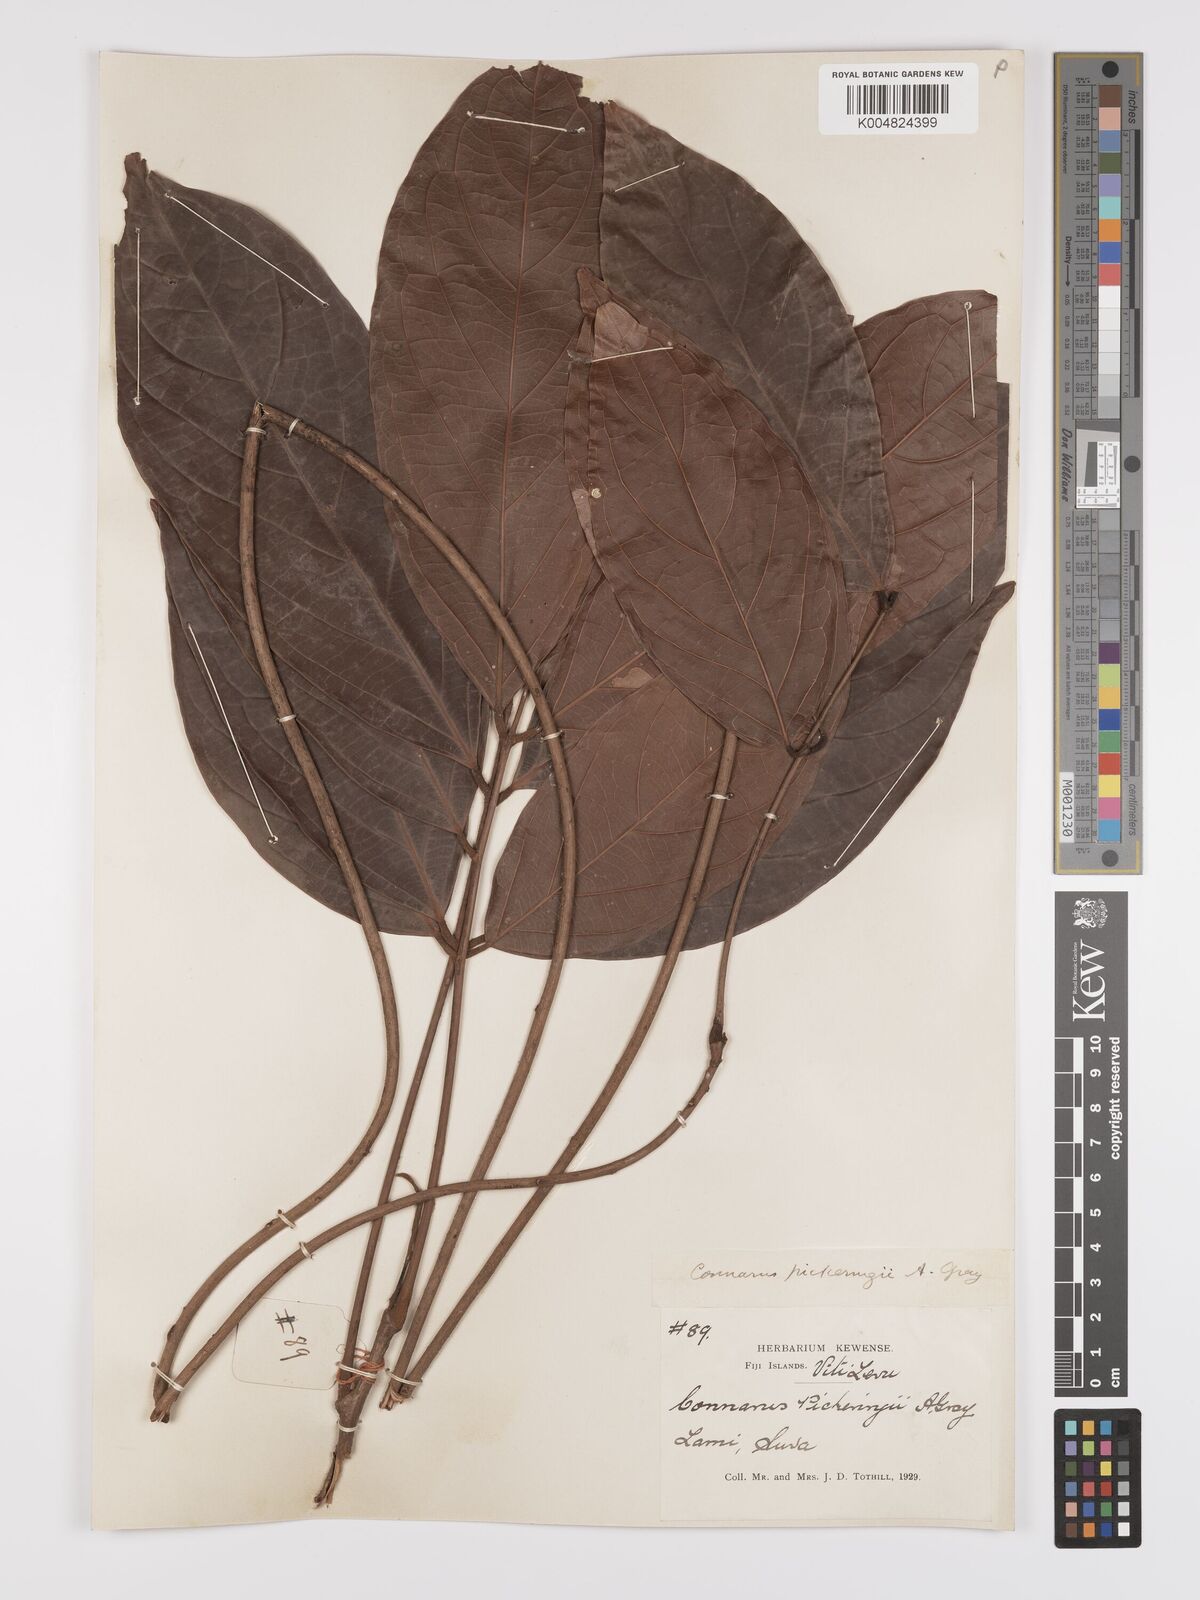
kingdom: Plantae
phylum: Tracheophyta
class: Magnoliopsida
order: Oxalidales
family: Connaraceae
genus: Connarus
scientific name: Connarus pickeringii
